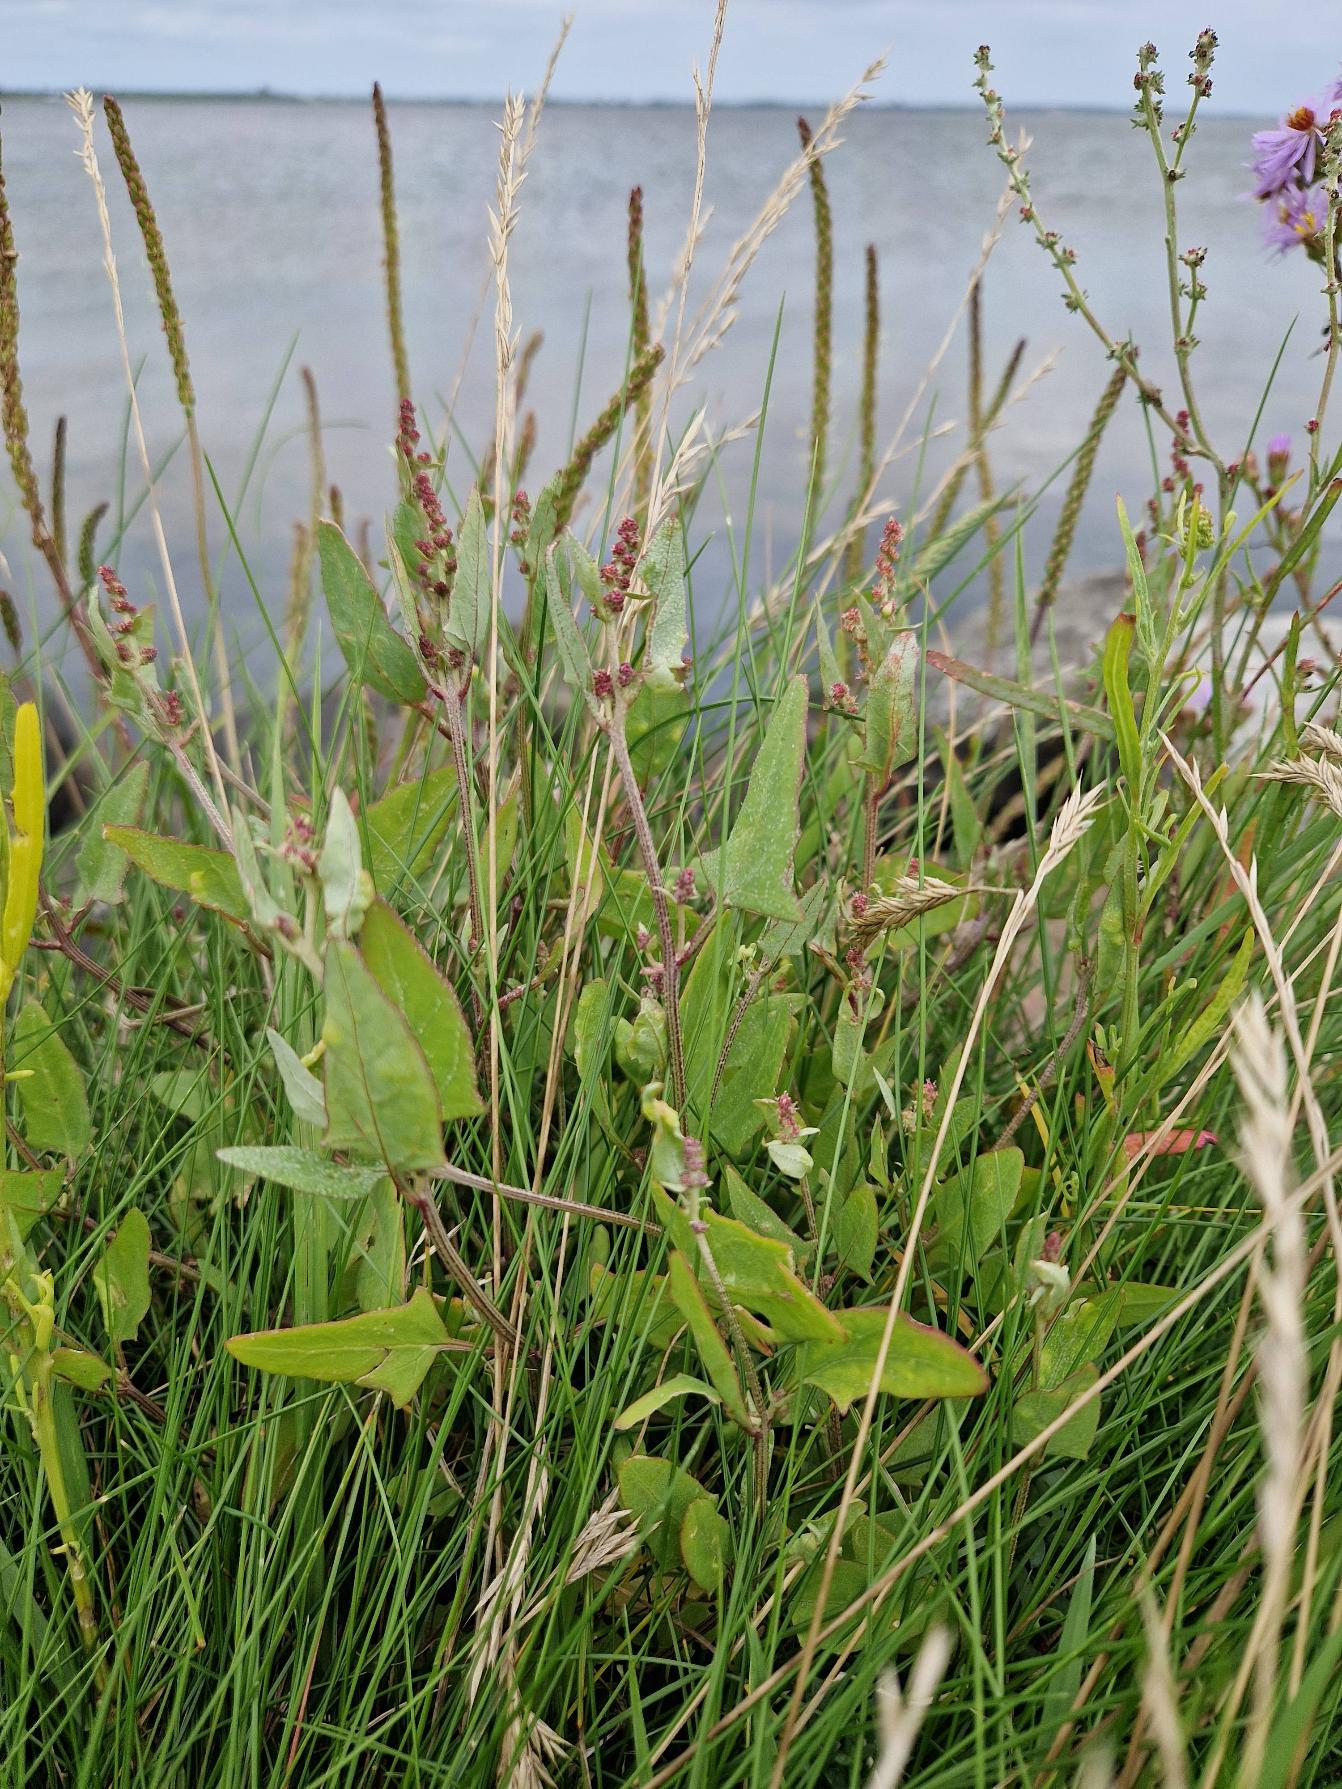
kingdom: Plantae
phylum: Tracheophyta
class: Magnoliopsida
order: Caryophyllales
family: Amaranthaceae
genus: Atriplex
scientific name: Atriplex prostrata
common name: Spyd-mælde
